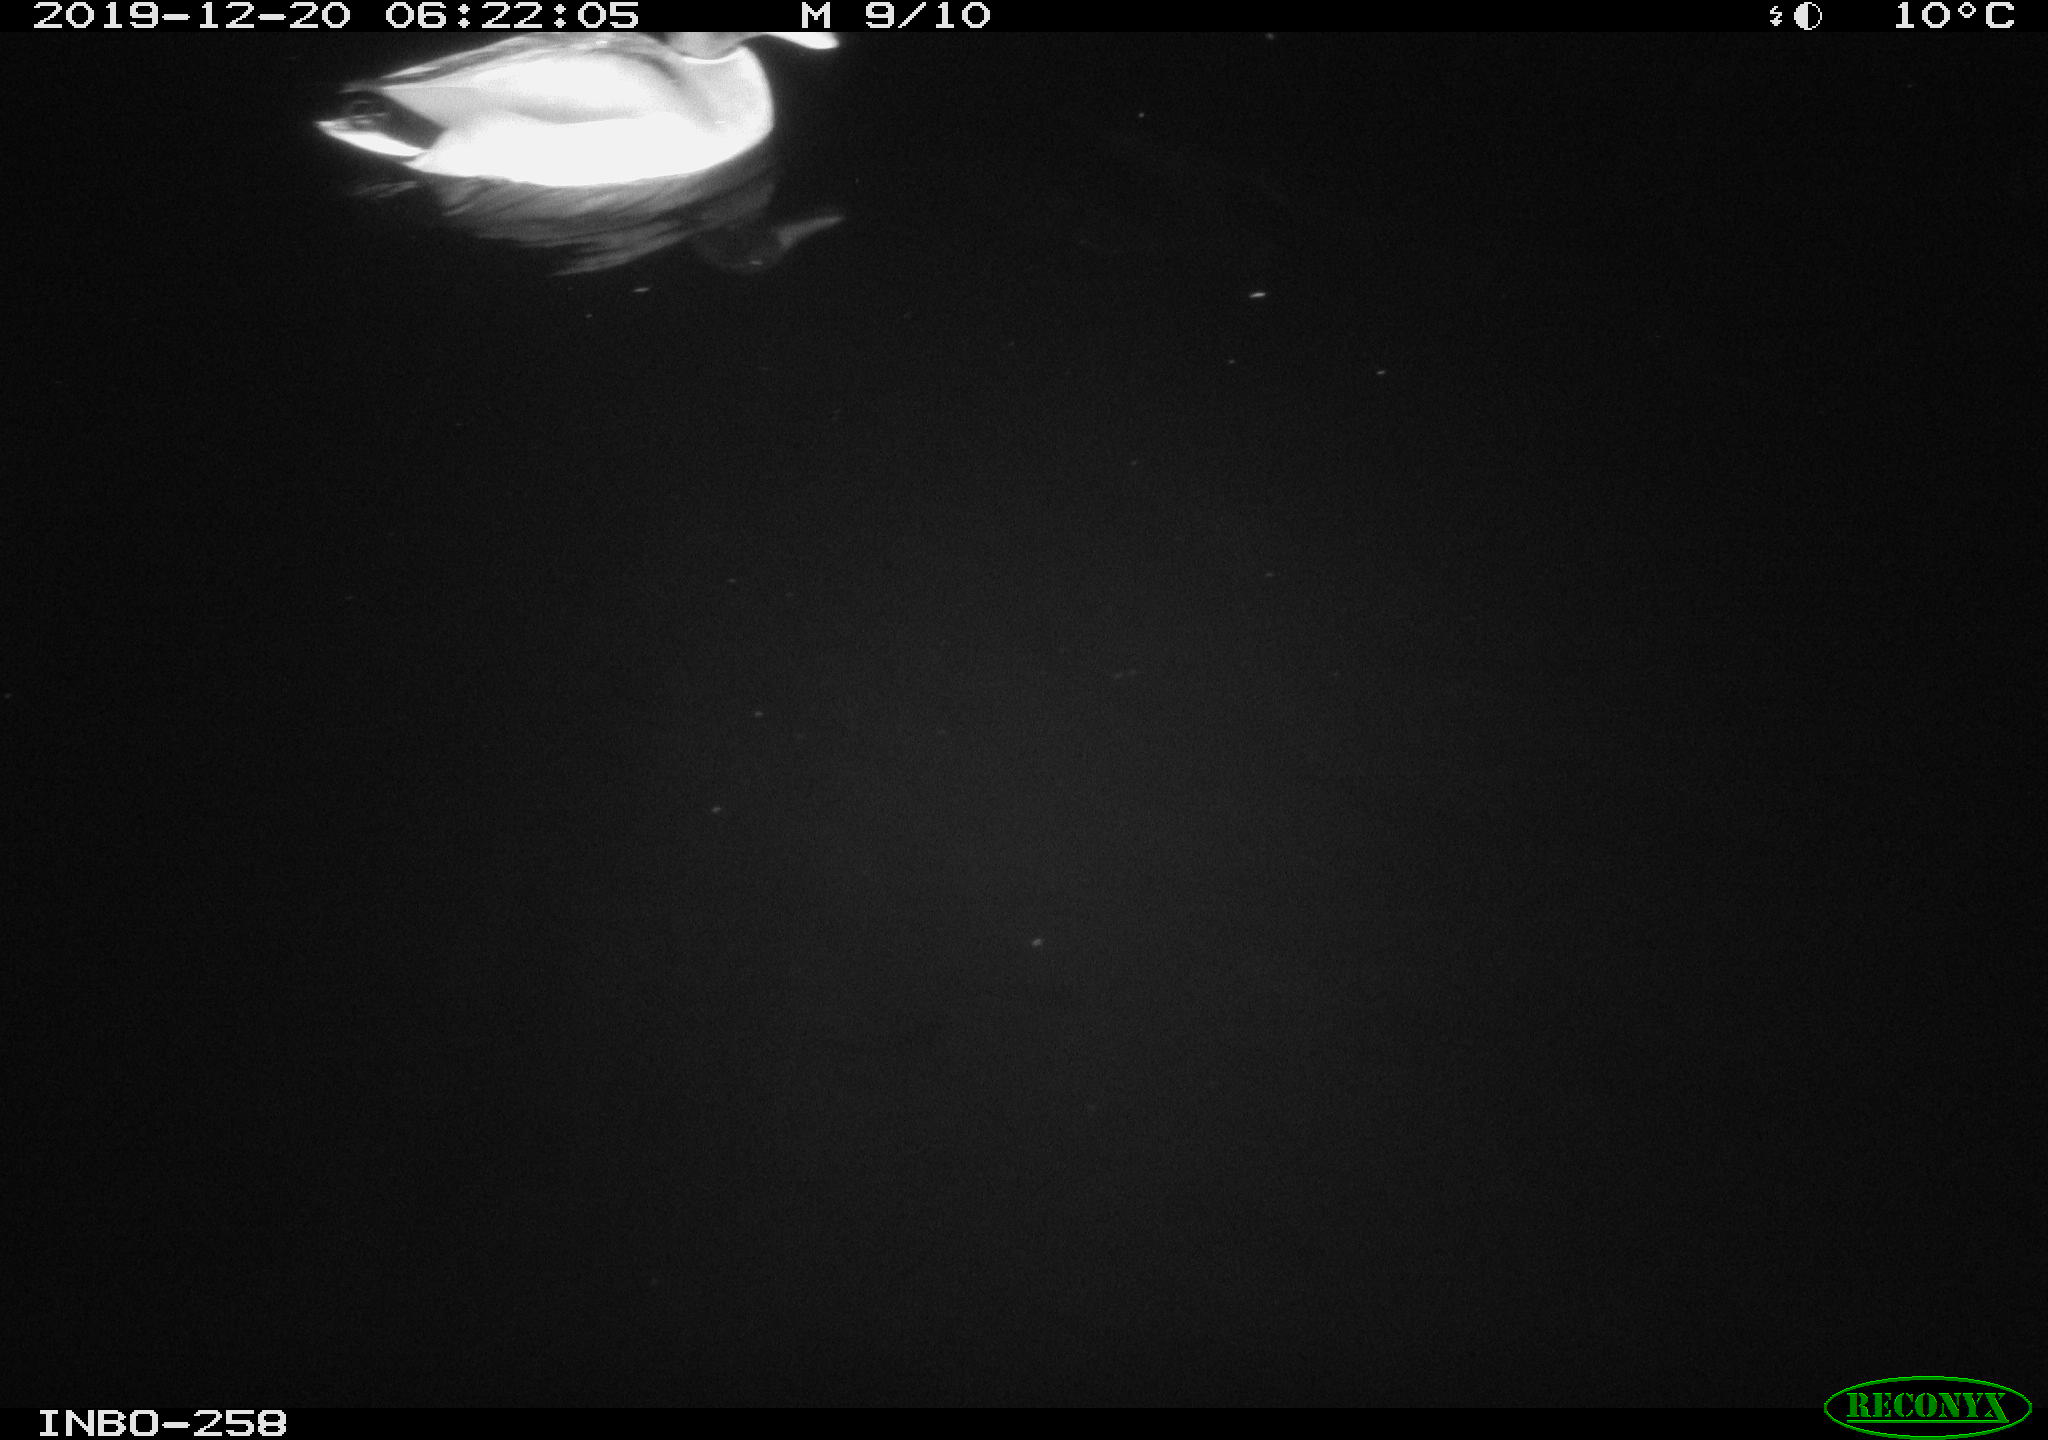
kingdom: Animalia
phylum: Chordata
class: Aves
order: Anseriformes
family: Anatidae
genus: Anas
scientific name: Anas platyrhynchos
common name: Mallard
